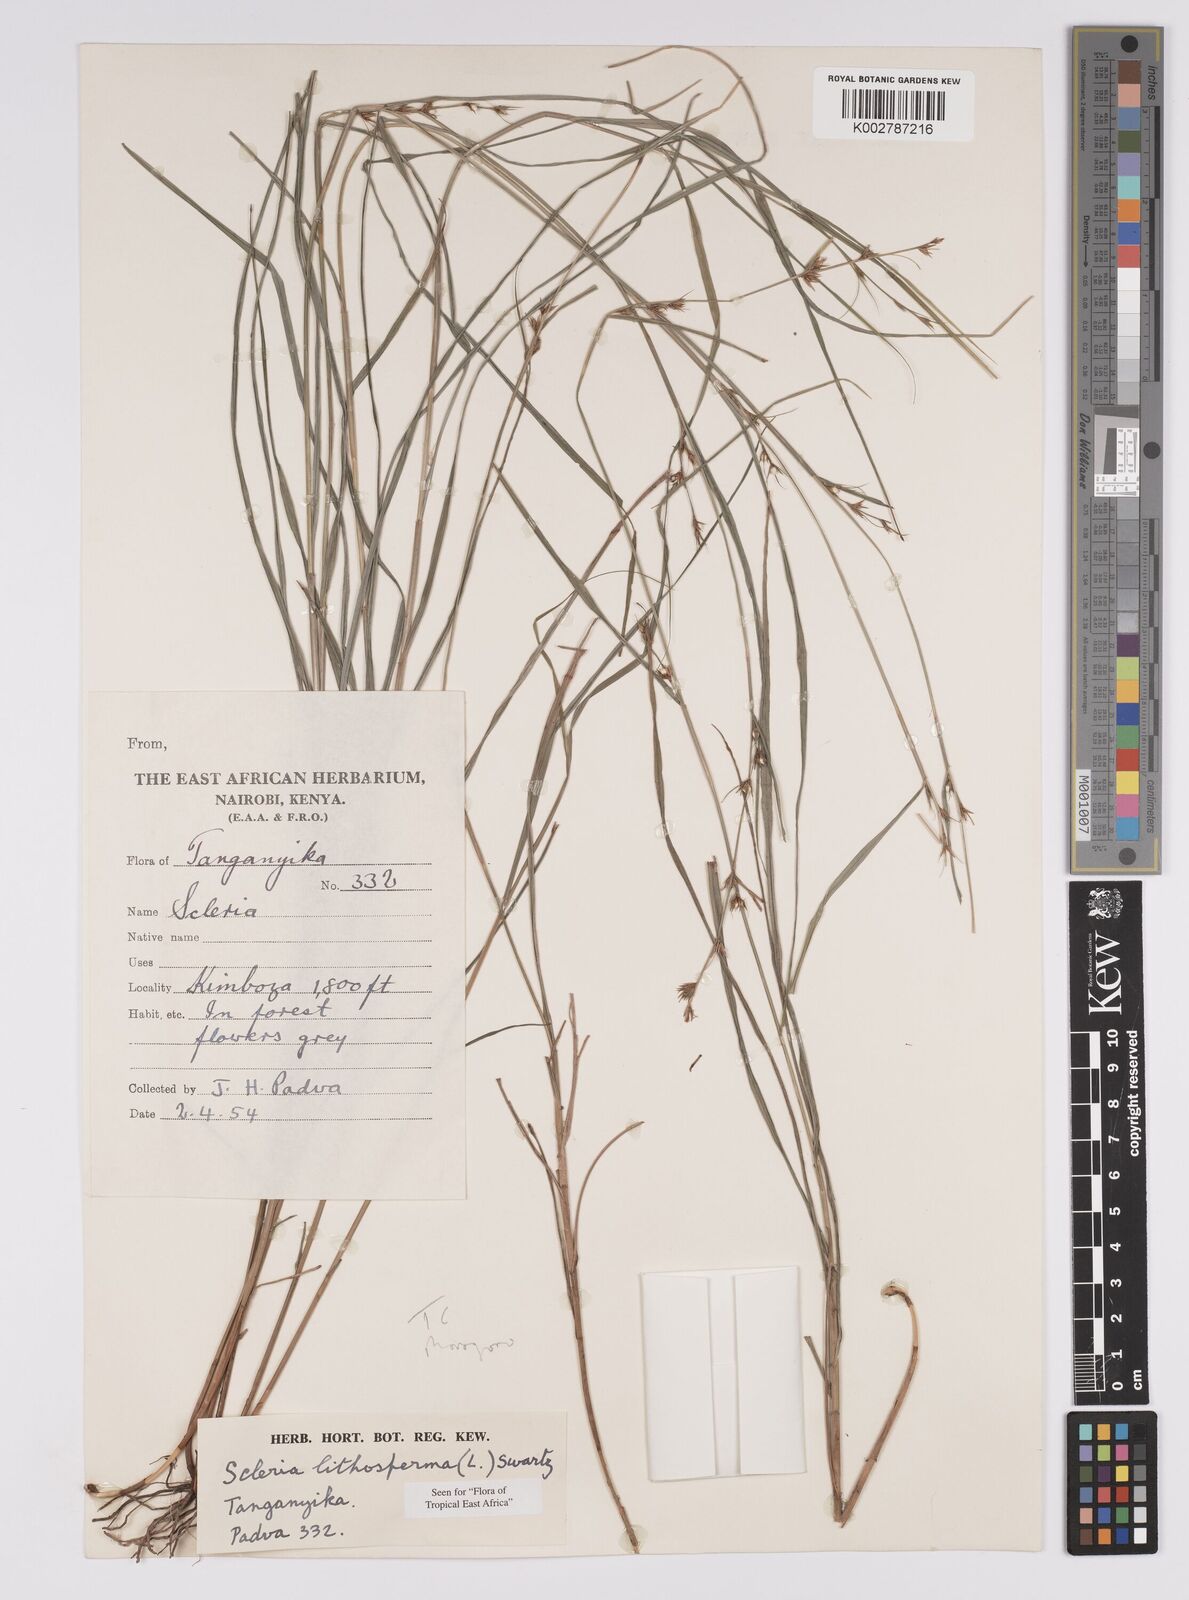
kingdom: Plantae
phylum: Tracheophyta
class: Liliopsida
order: Poales
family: Cyperaceae
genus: Scleria
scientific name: Scleria lithosperma
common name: Florida keys nut-rush
